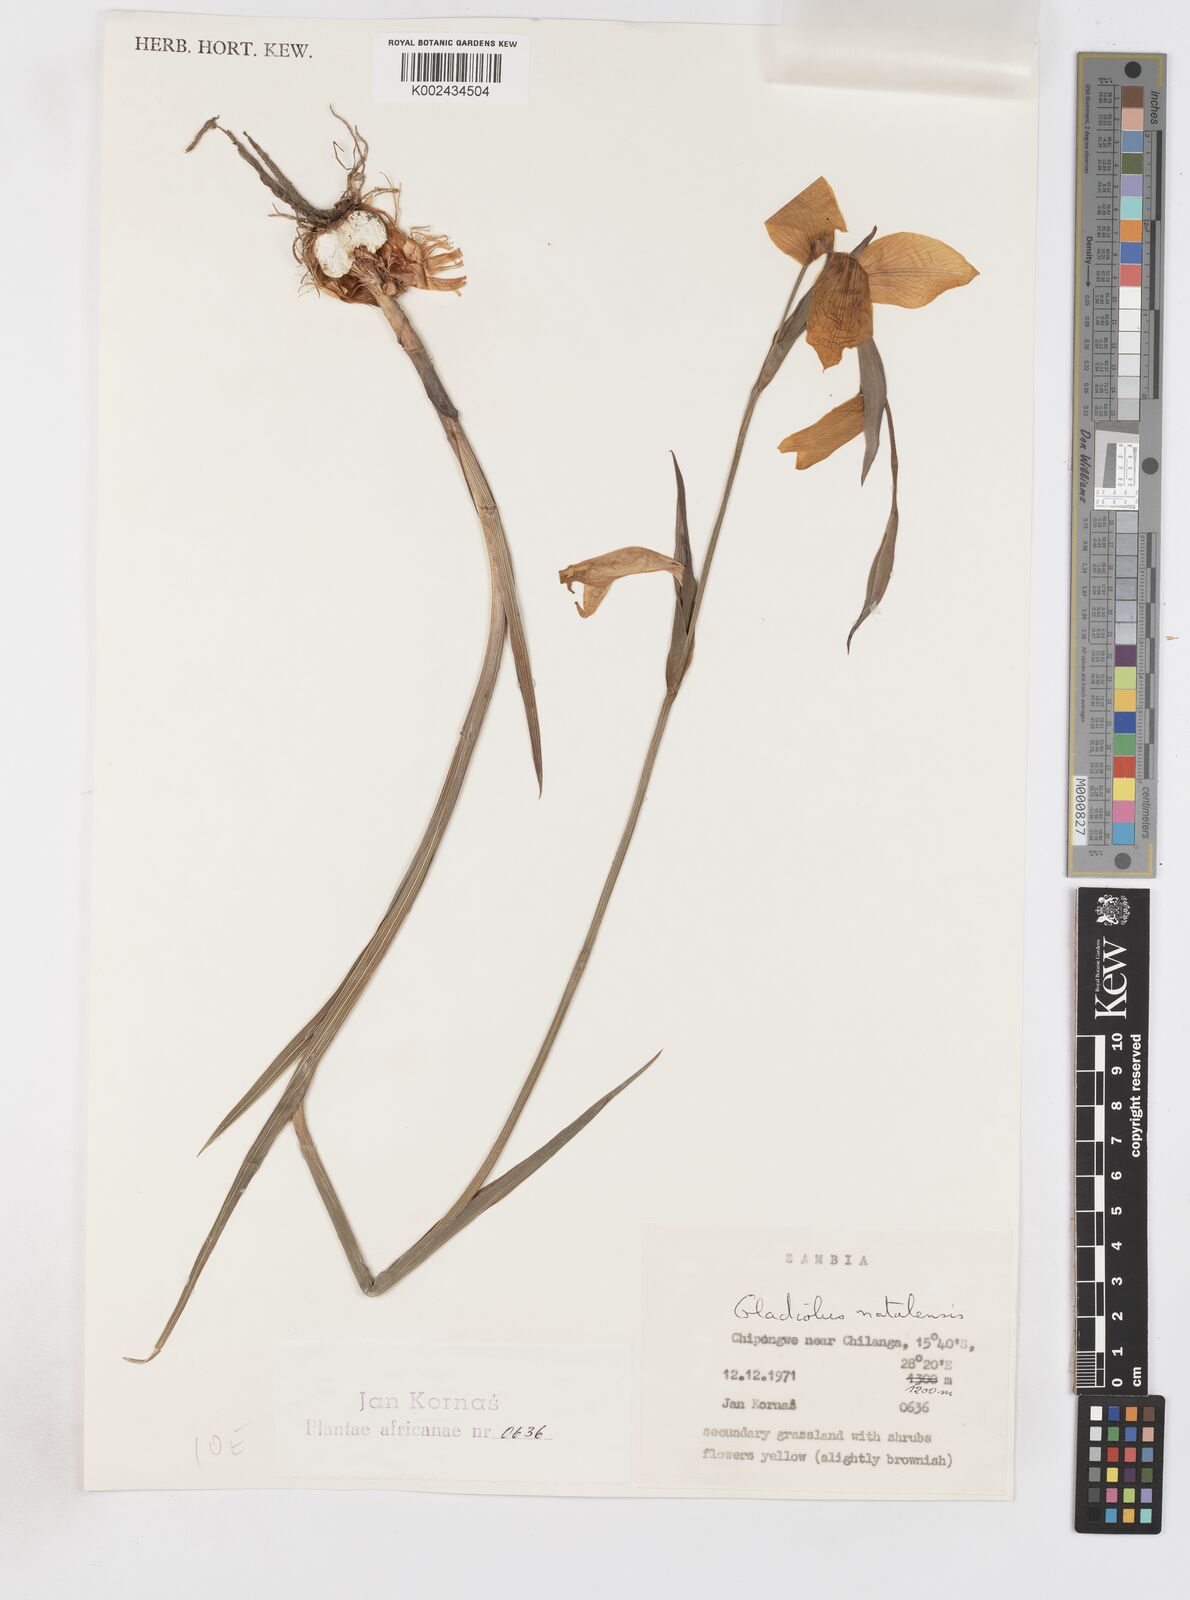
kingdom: Plantae
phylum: Tracheophyta
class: Liliopsida
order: Asparagales
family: Iridaceae
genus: Gladiolus
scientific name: Gladiolus dalenii
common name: Cornflag
